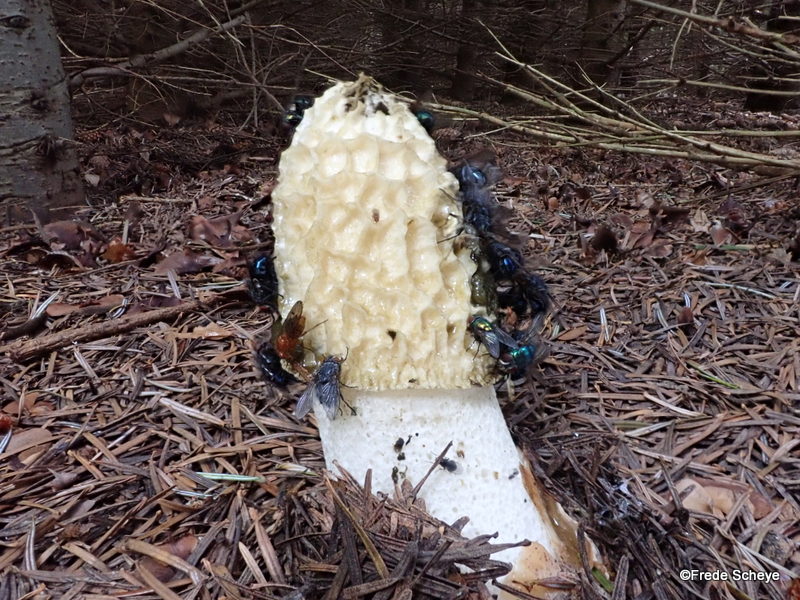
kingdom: Fungi
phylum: Basidiomycota
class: Agaricomycetes
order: Phallales
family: Phallaceae
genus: Phallus
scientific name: Phallus impudicus
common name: almindelig stinksvamp
